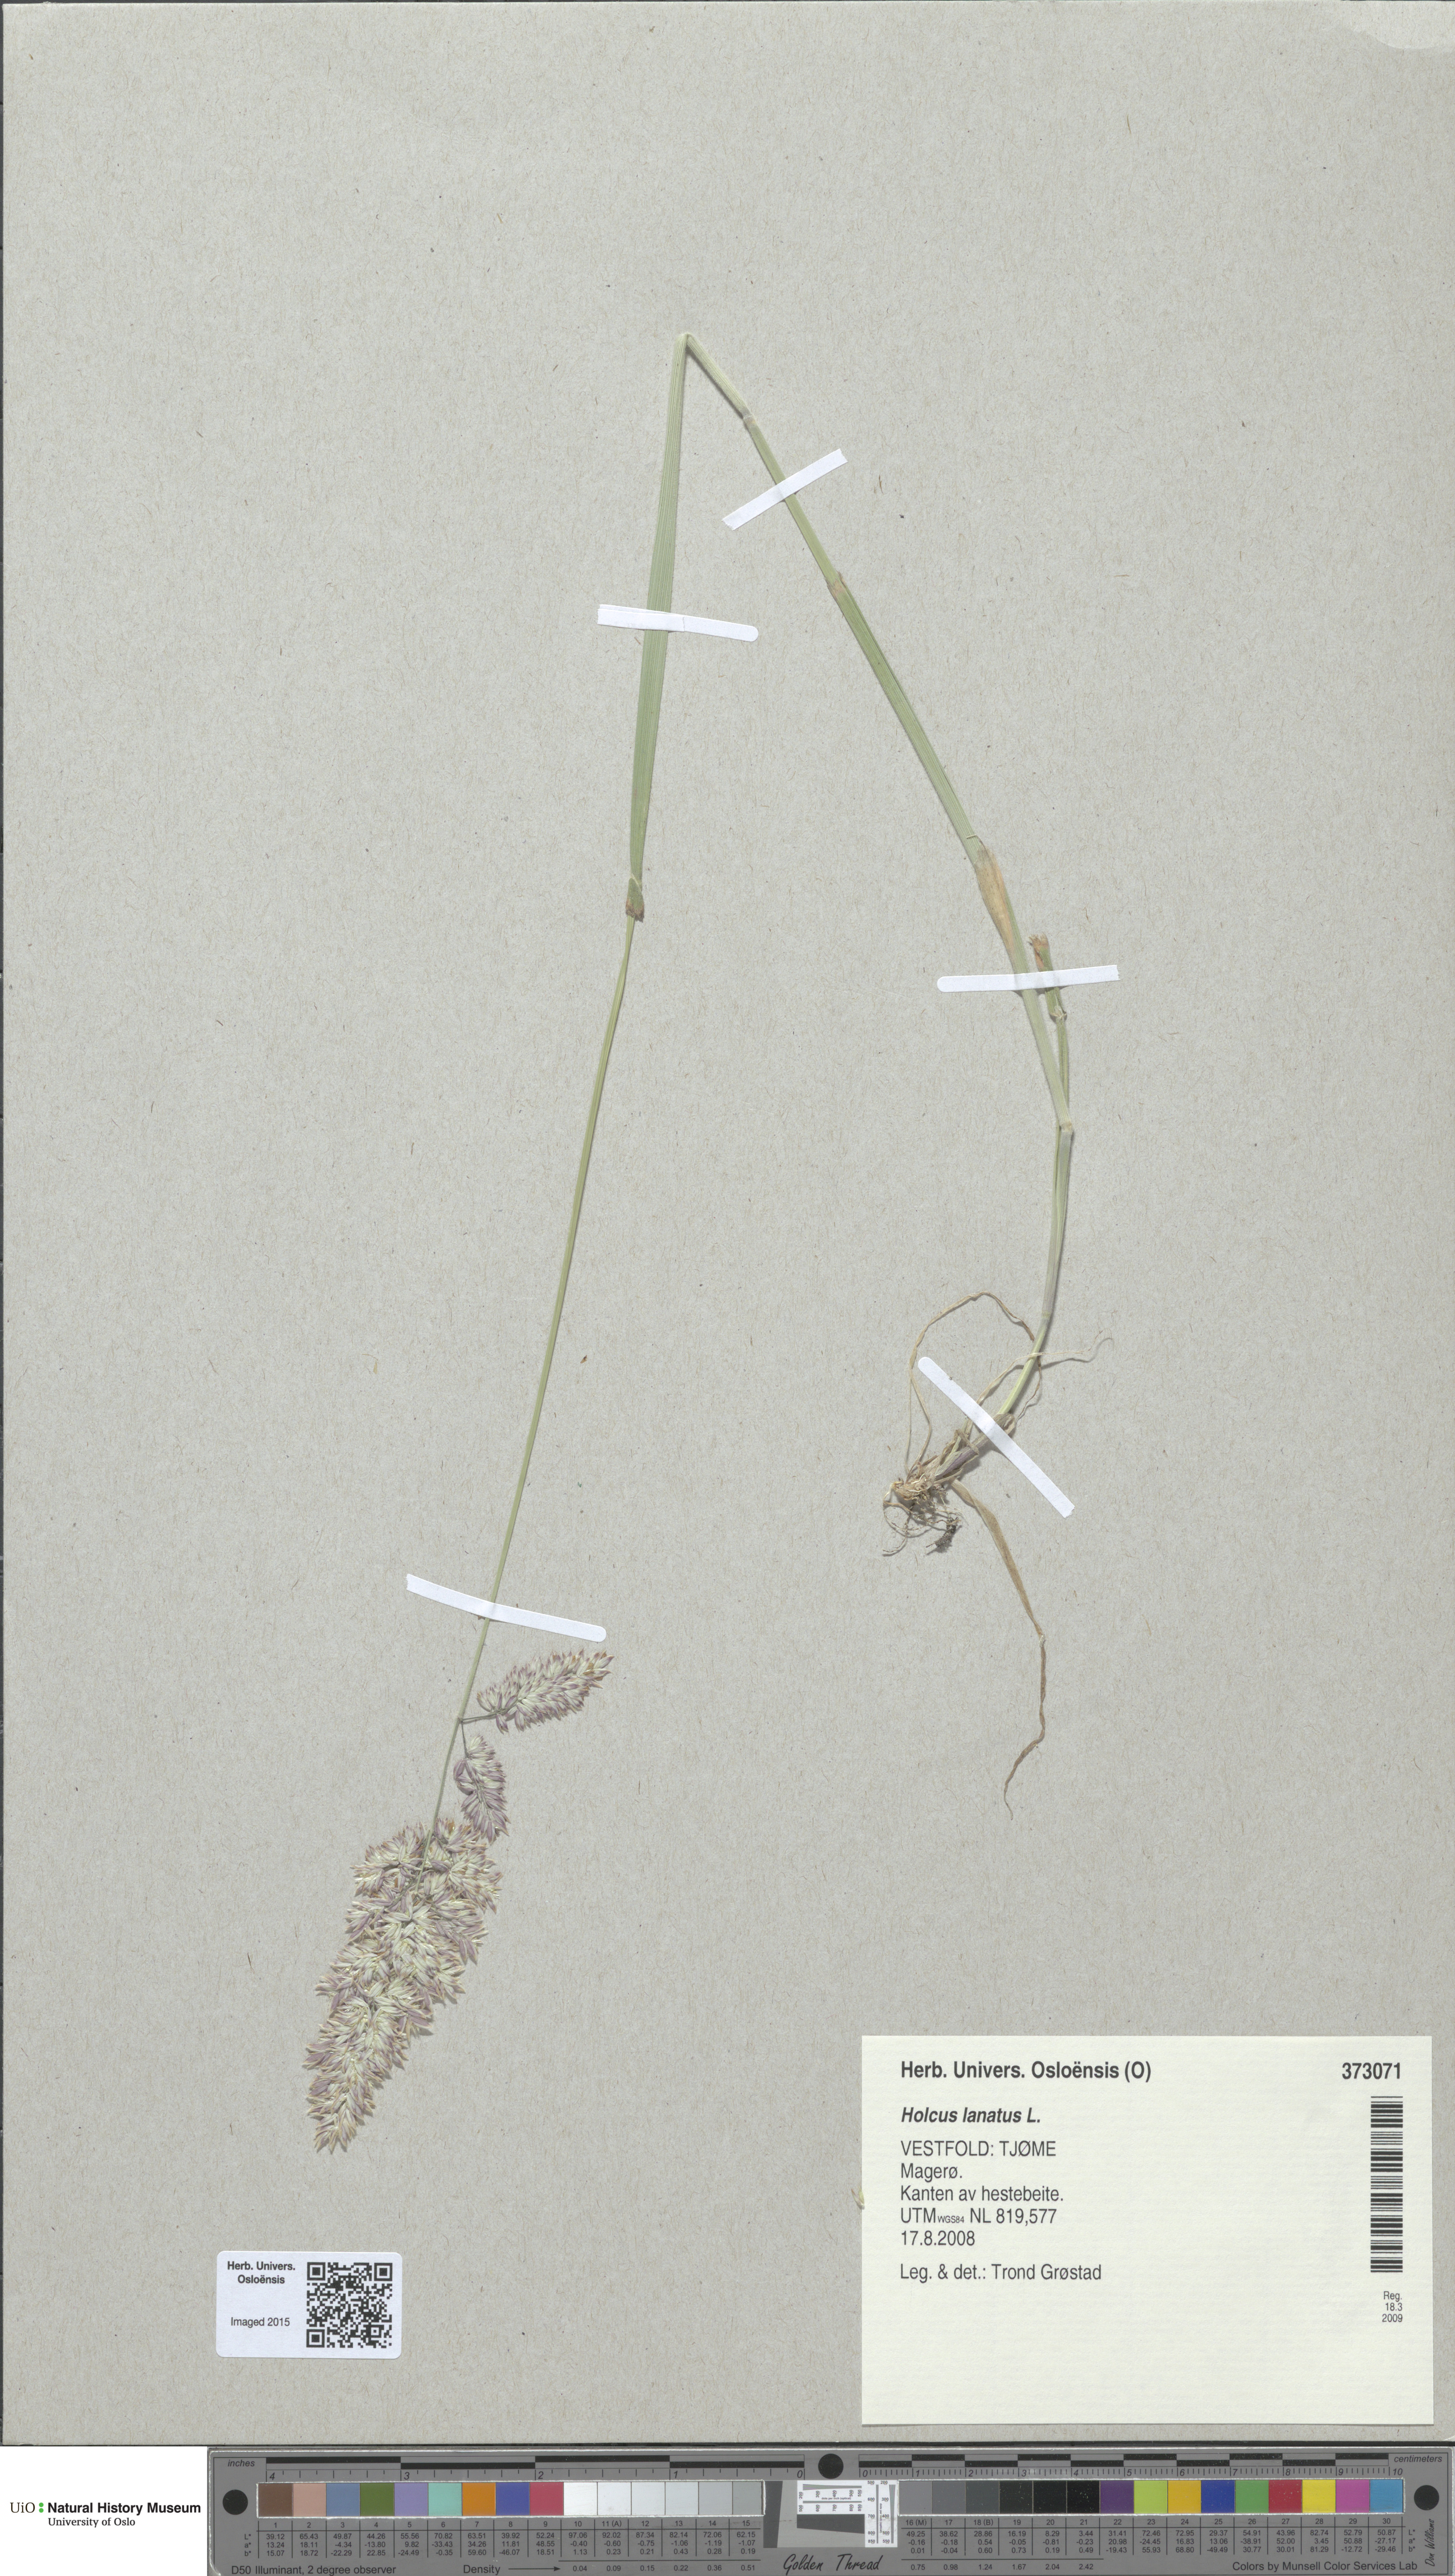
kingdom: Plantae
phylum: Tracheophyta
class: Liliopsida
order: Poales
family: Poaceae
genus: Holcus
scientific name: Holcus lanatus
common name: Yorkshire-fog
